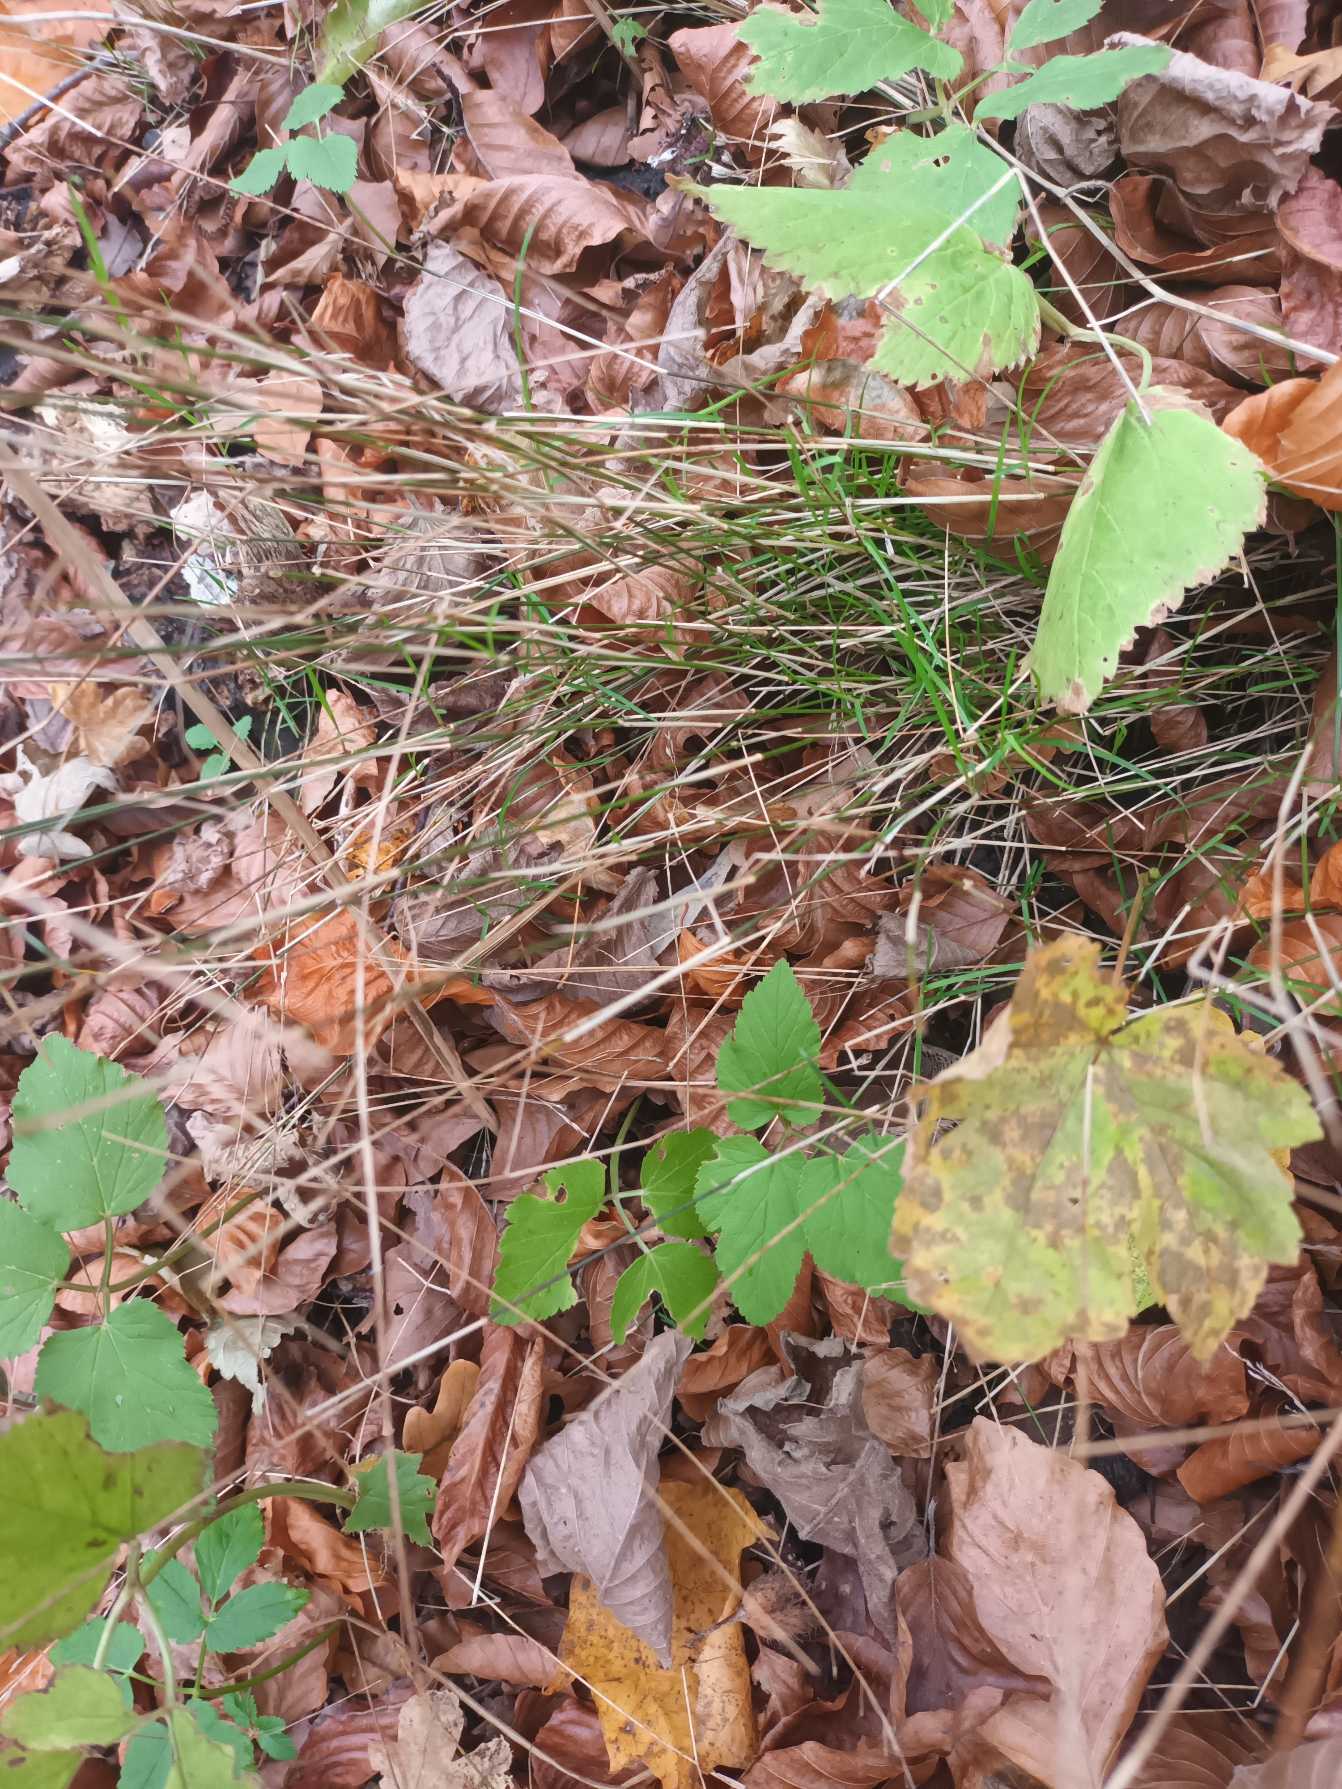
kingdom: Plantae
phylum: Tracheophyta
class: Liliopsida
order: Poales
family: Poaceae
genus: Poa
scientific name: Poa nemoralis
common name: Lund-rapgræs
